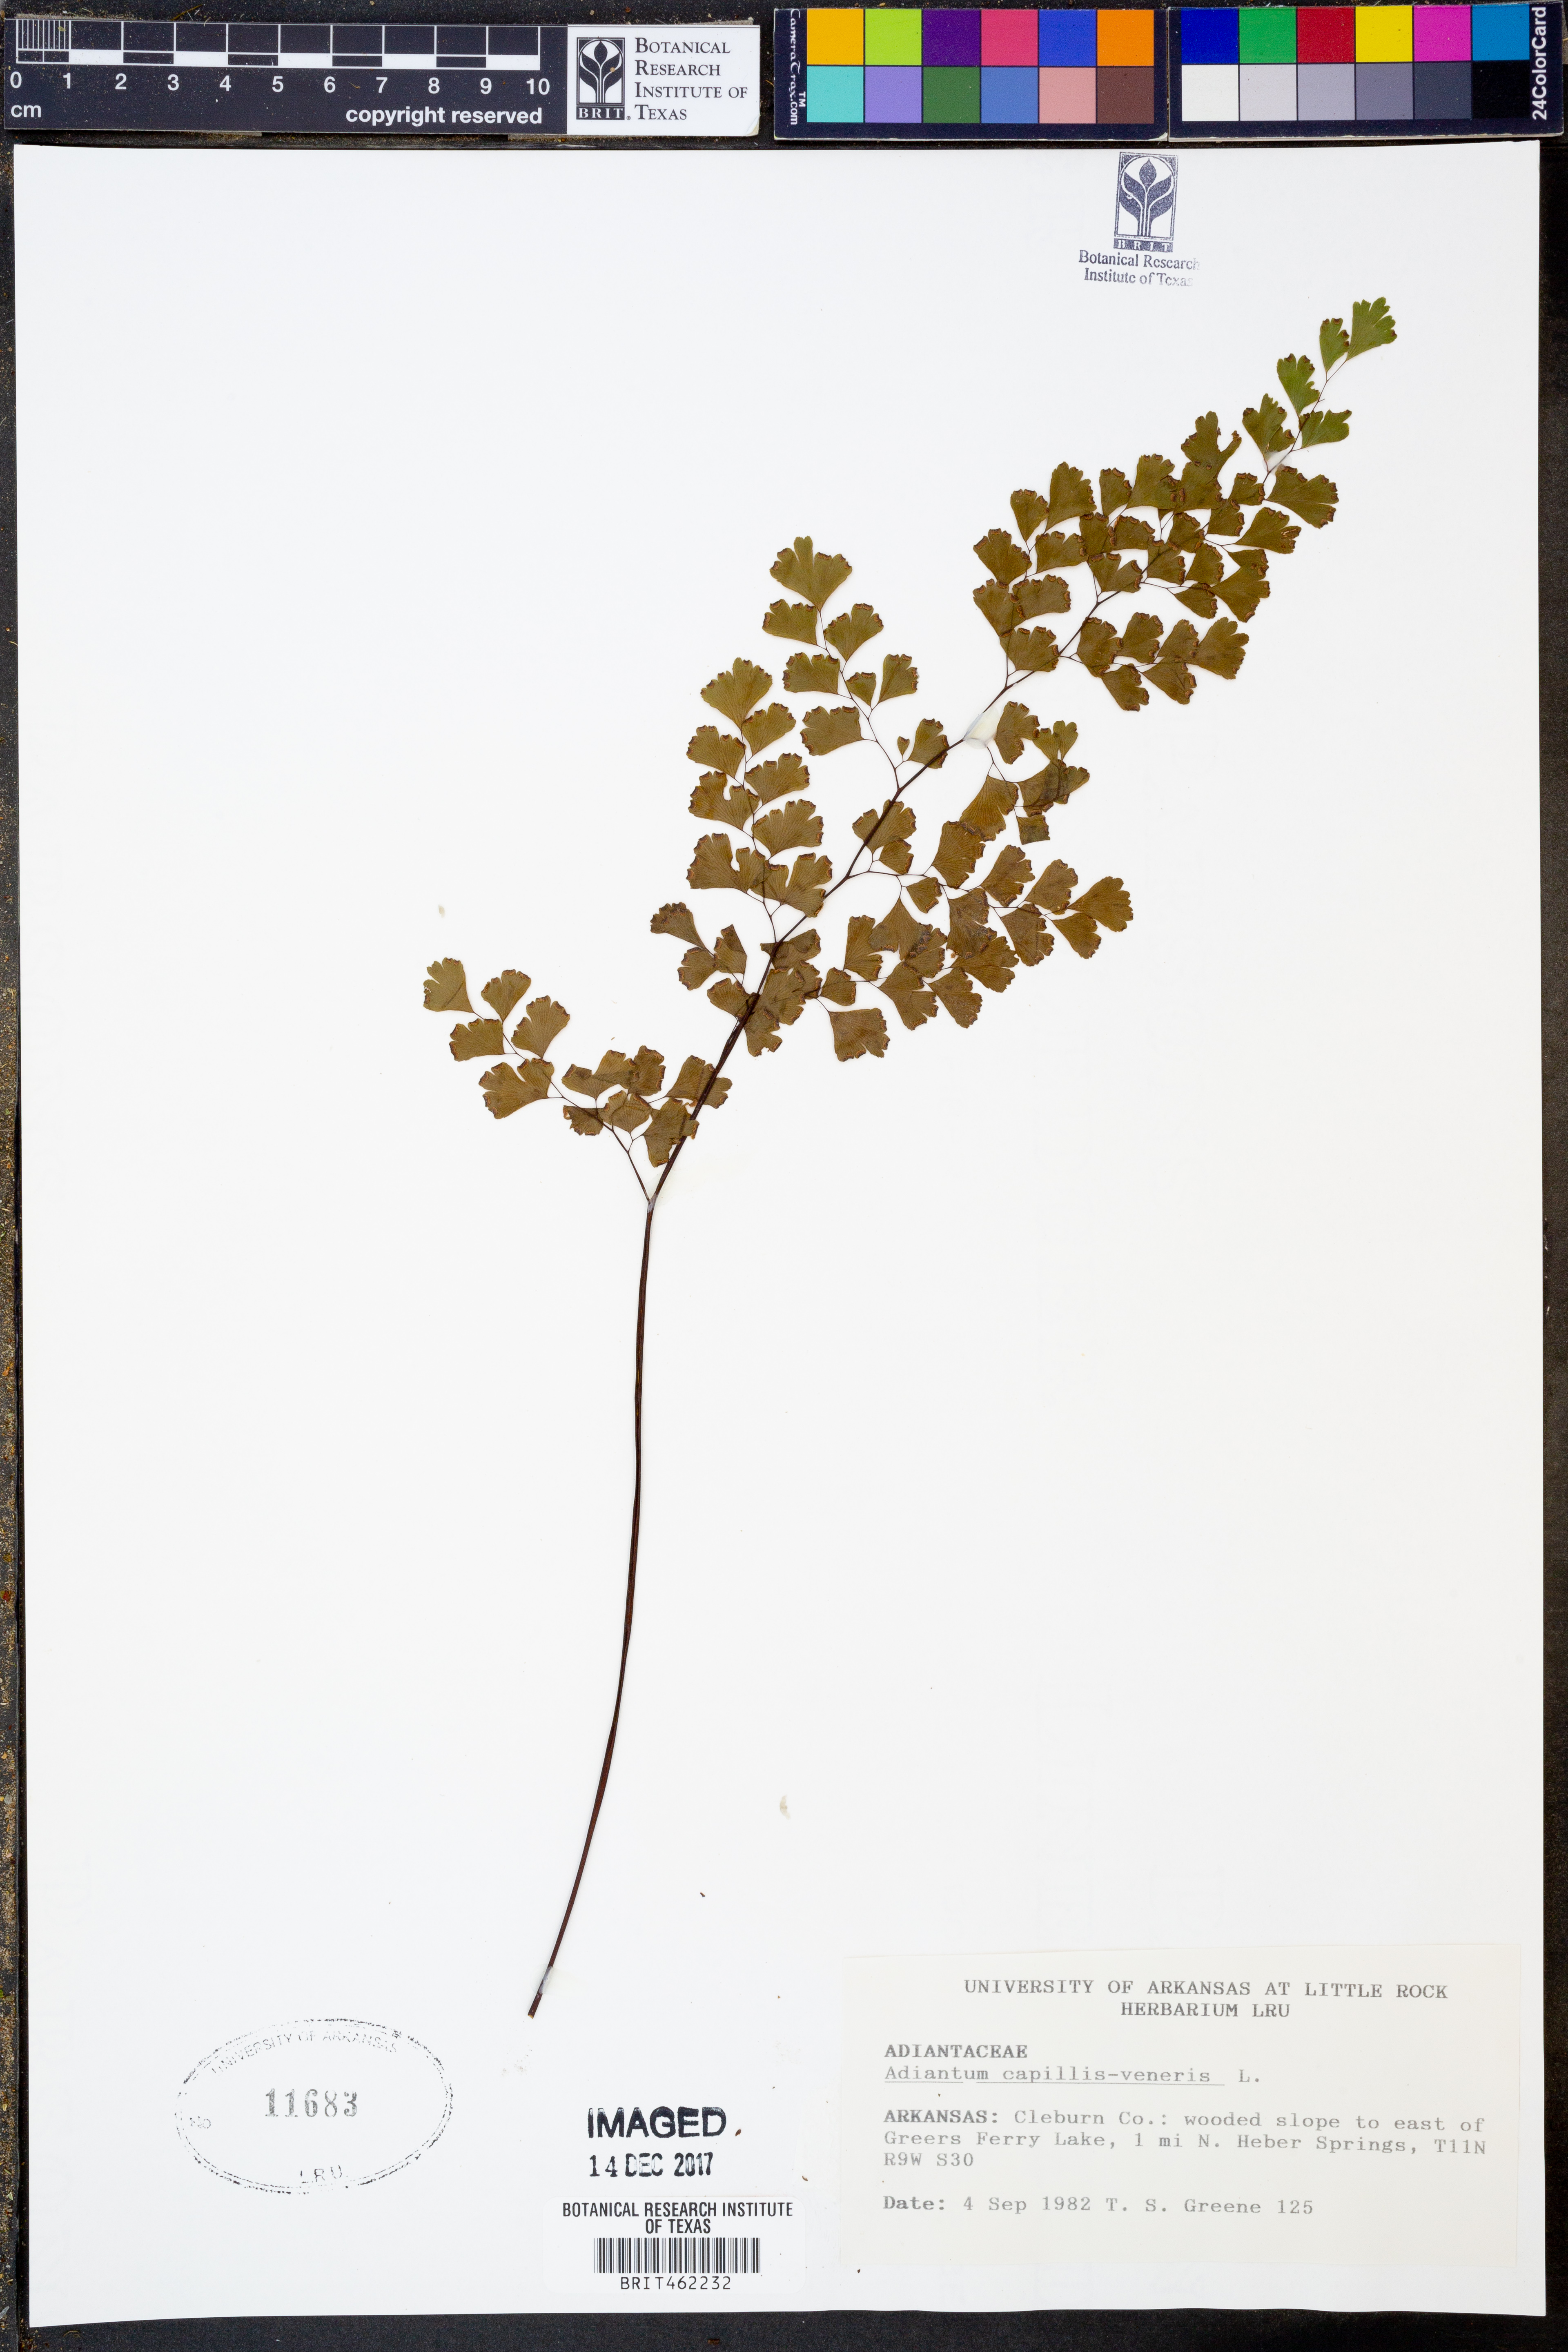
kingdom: Plantae
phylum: Tracheophyta
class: Polypodiopsida
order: Polypodiales
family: Pteridaceae
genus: Adiantum
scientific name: Adiantum capillus-veneris
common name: Maidenhair fern
